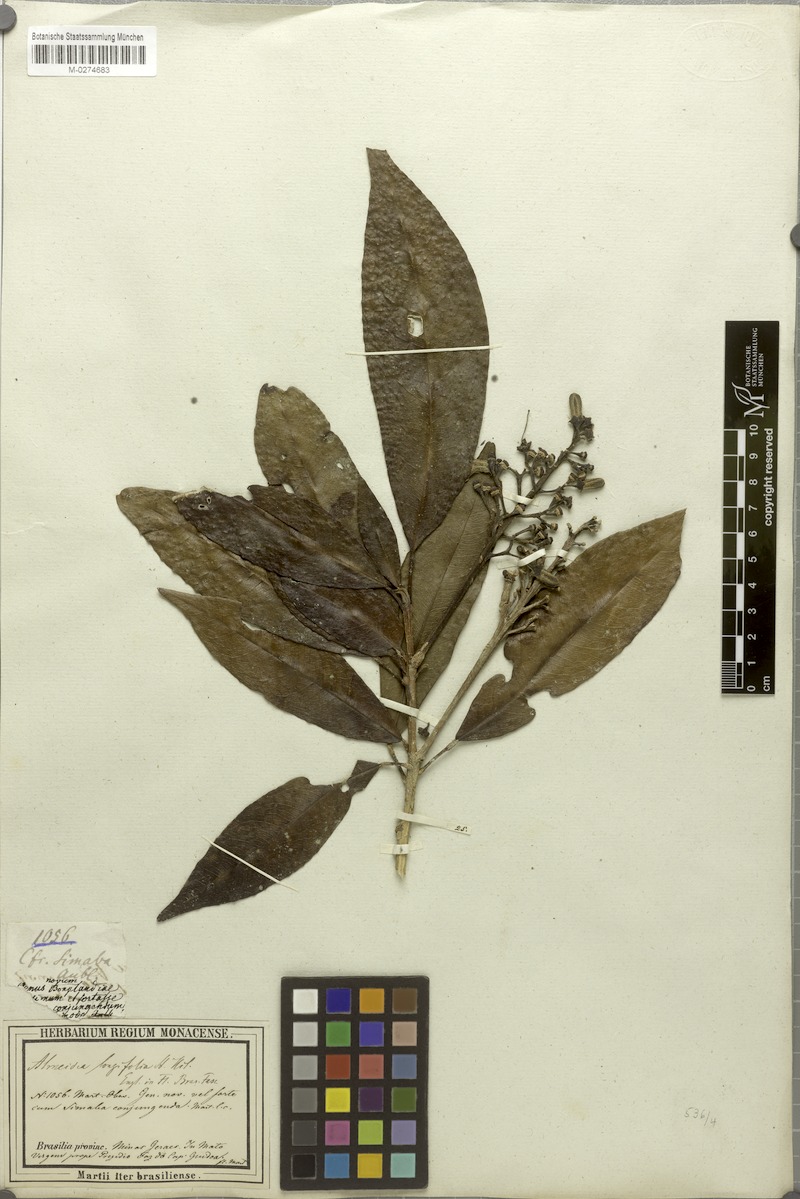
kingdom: Plantae
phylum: Tracheophyta
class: Magnoliopsida
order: Sapindales
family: Rutaceae
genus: Conchocarpus
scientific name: Conchocarpus ruber
